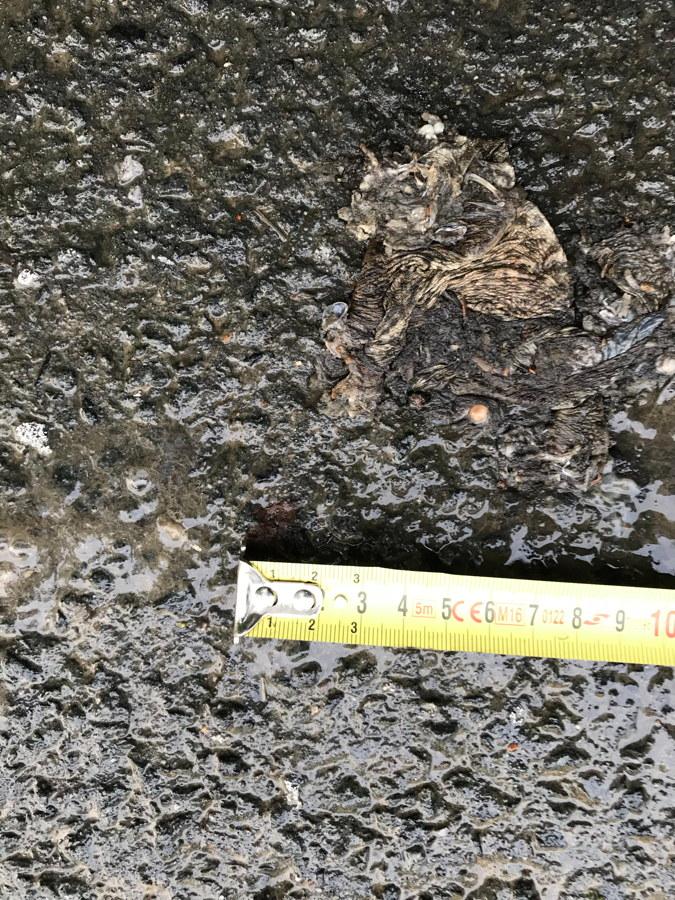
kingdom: Animalia
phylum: Chordata
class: Amphibia
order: Anura
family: Bufonidae
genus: Bufo
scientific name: Bufo bufo
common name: Common toad
